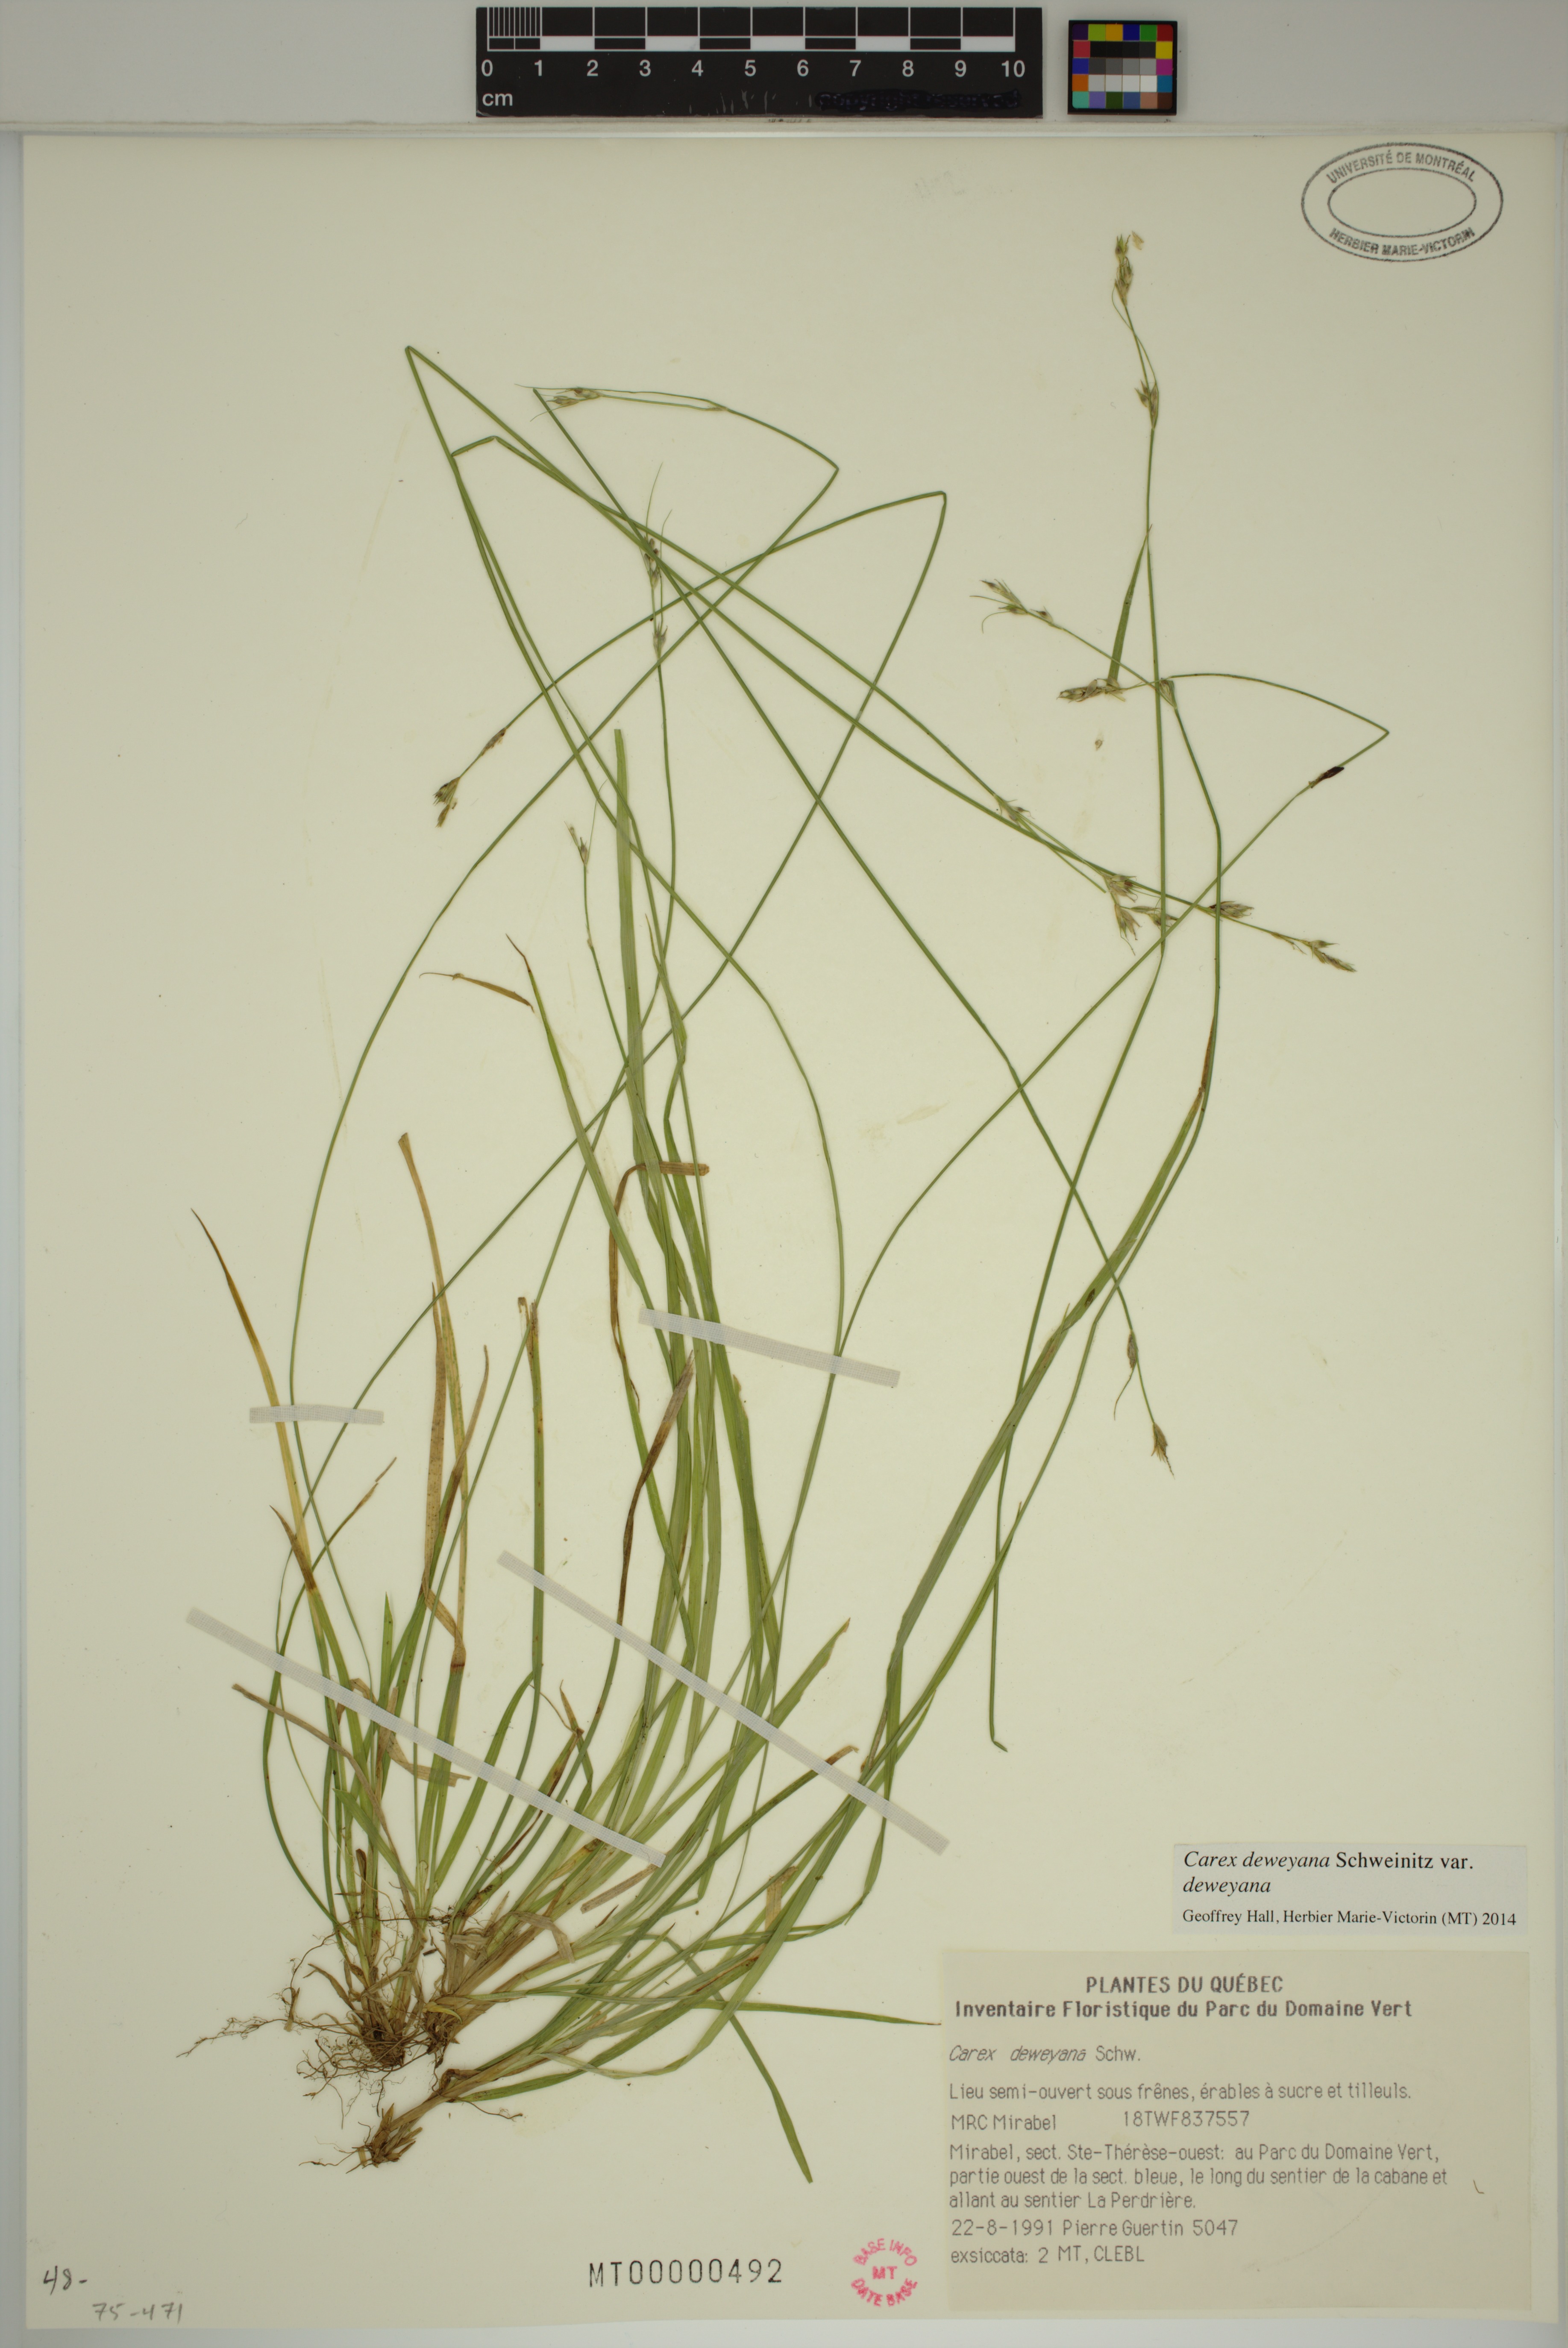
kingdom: Plantae
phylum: Tracheophyta
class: Liliopsida
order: Poales
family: Cyperaceae
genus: Carex
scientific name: Carex deweyana
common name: Dewey's sedge
